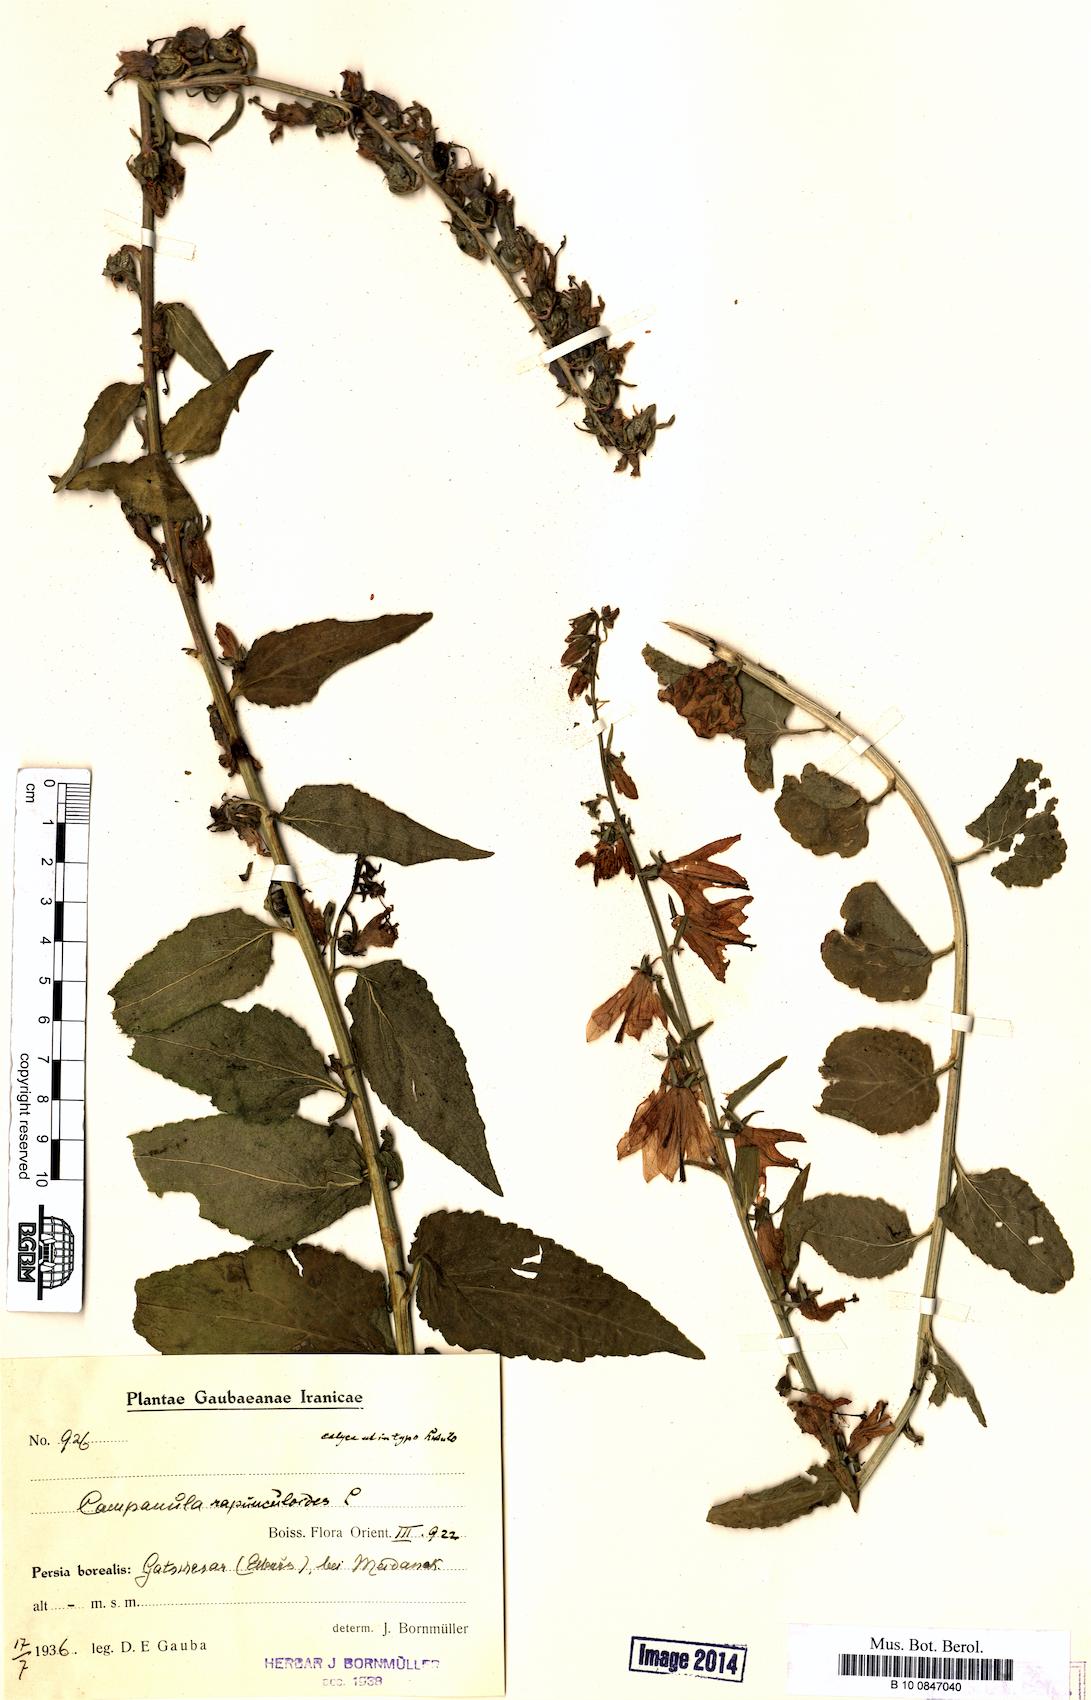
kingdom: Plantae
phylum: Tracheophyta
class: Magnoliopsida
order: Asterales
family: Campanulaceae
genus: Campanula
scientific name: Campanula rapunculoides
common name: Creeping bellflower
